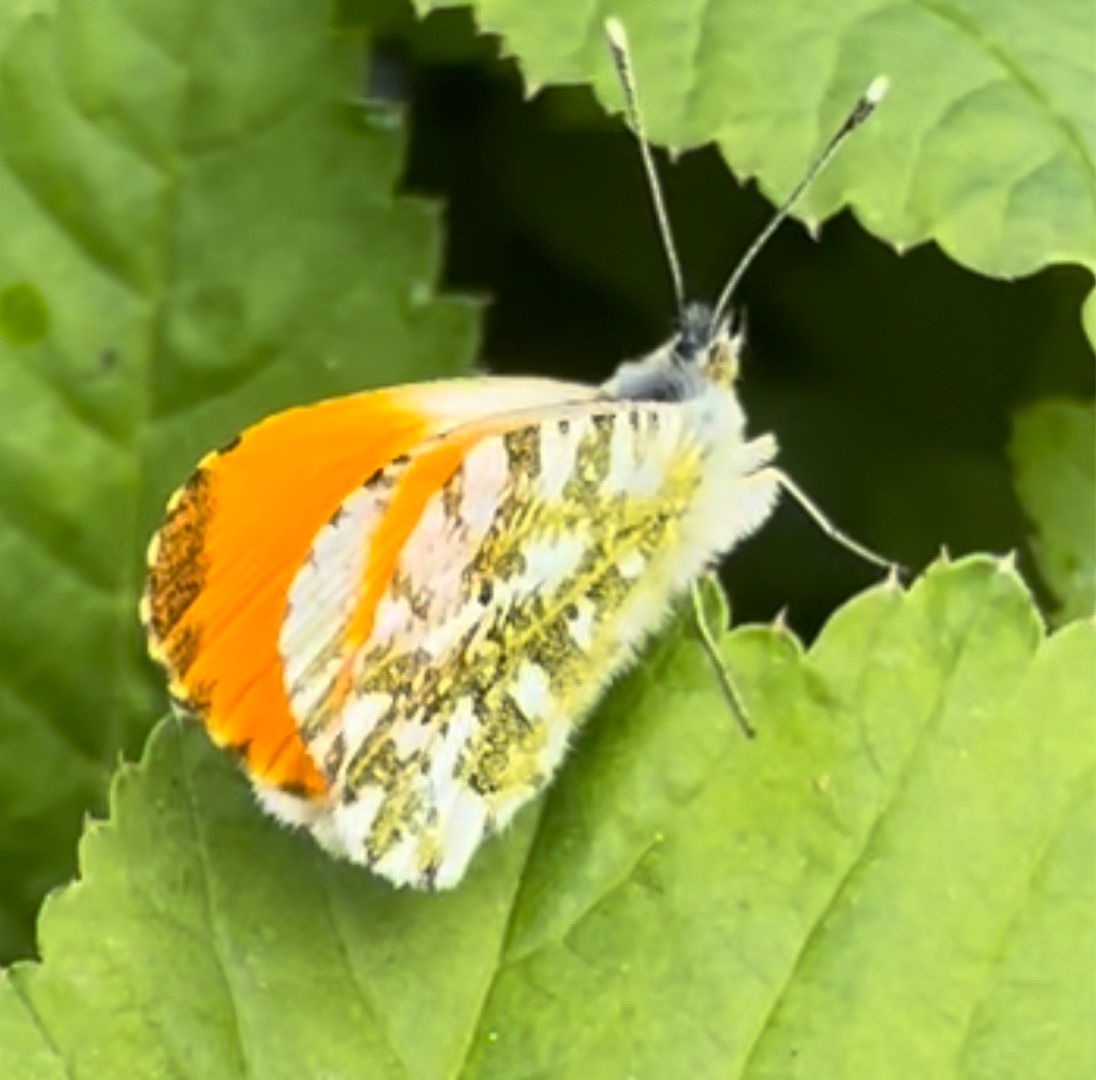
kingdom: Animalia
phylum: Arthropoda
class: Insecta
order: Lepidoptera
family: Pieridae
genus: Anthocharis
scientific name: Anthocharis cardamines
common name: Aurora
